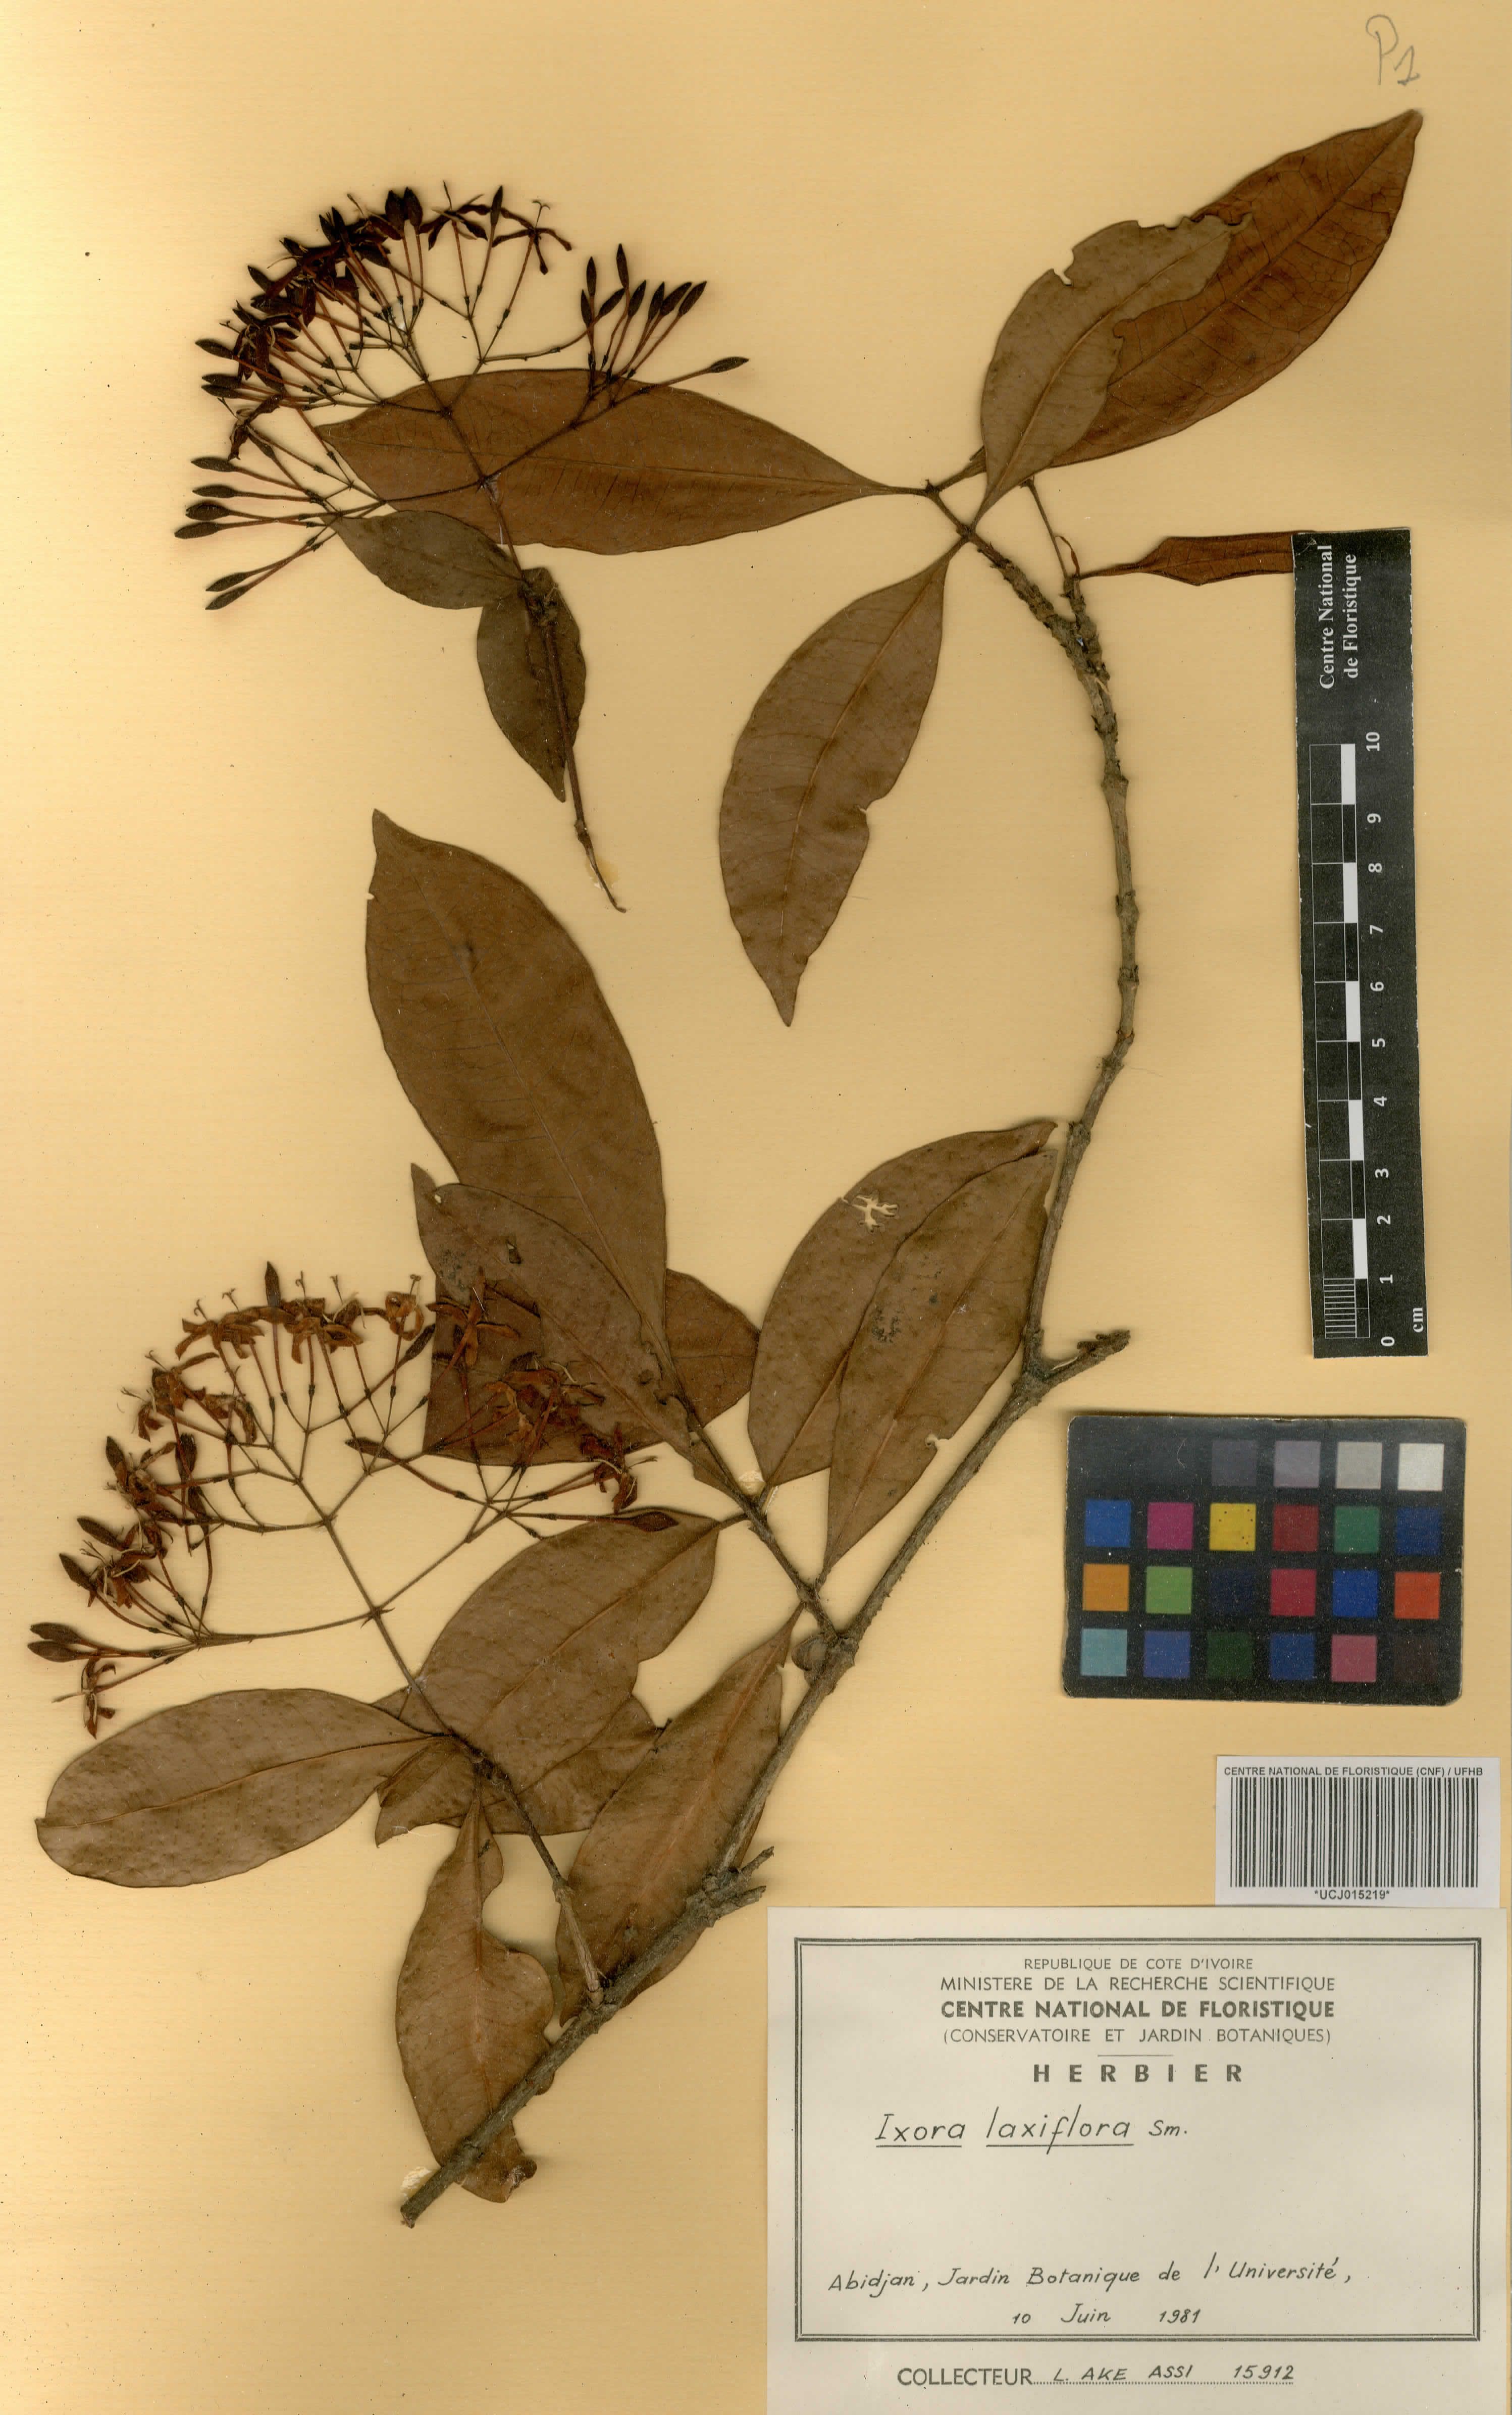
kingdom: Plantae
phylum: Tracheophyta
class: Magnoliopsida
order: Gentianales
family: Rubiaceae
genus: Ixora
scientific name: Ixora laxiflora
